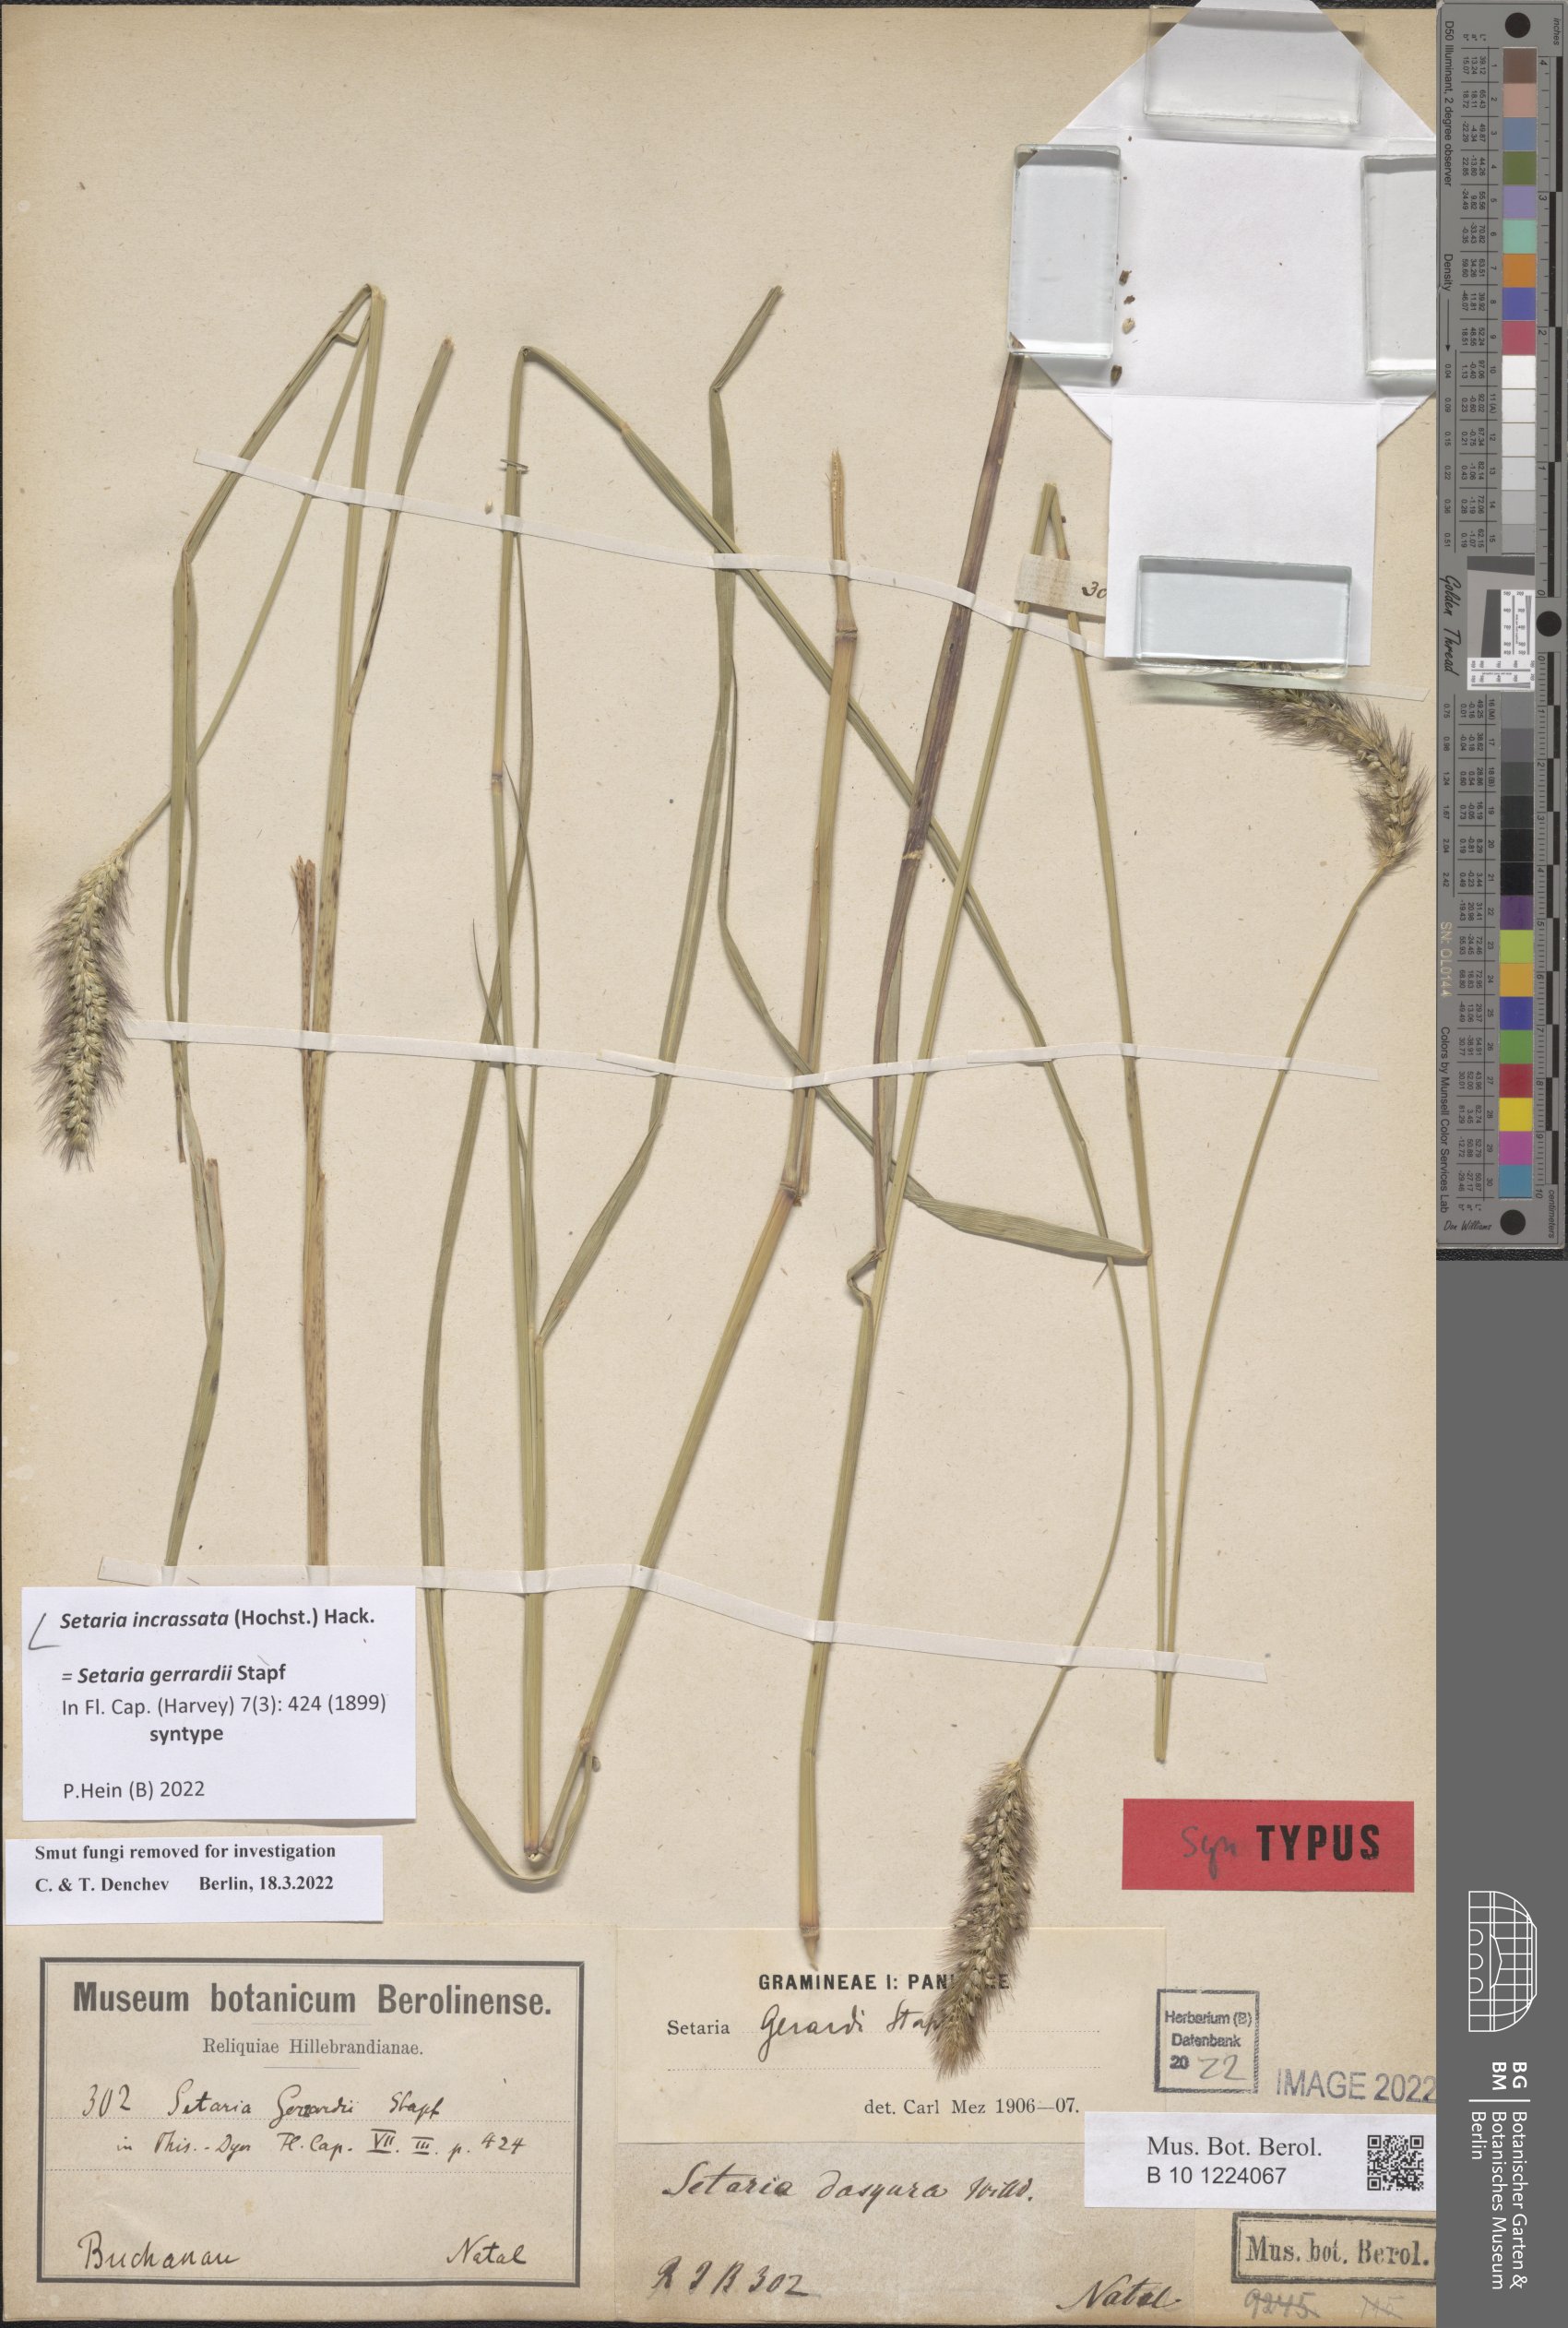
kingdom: Plantae
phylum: Tracheophyta
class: Liliopsida
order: Poales
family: Poaceae
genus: Setaria
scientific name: Setaria incrassata
